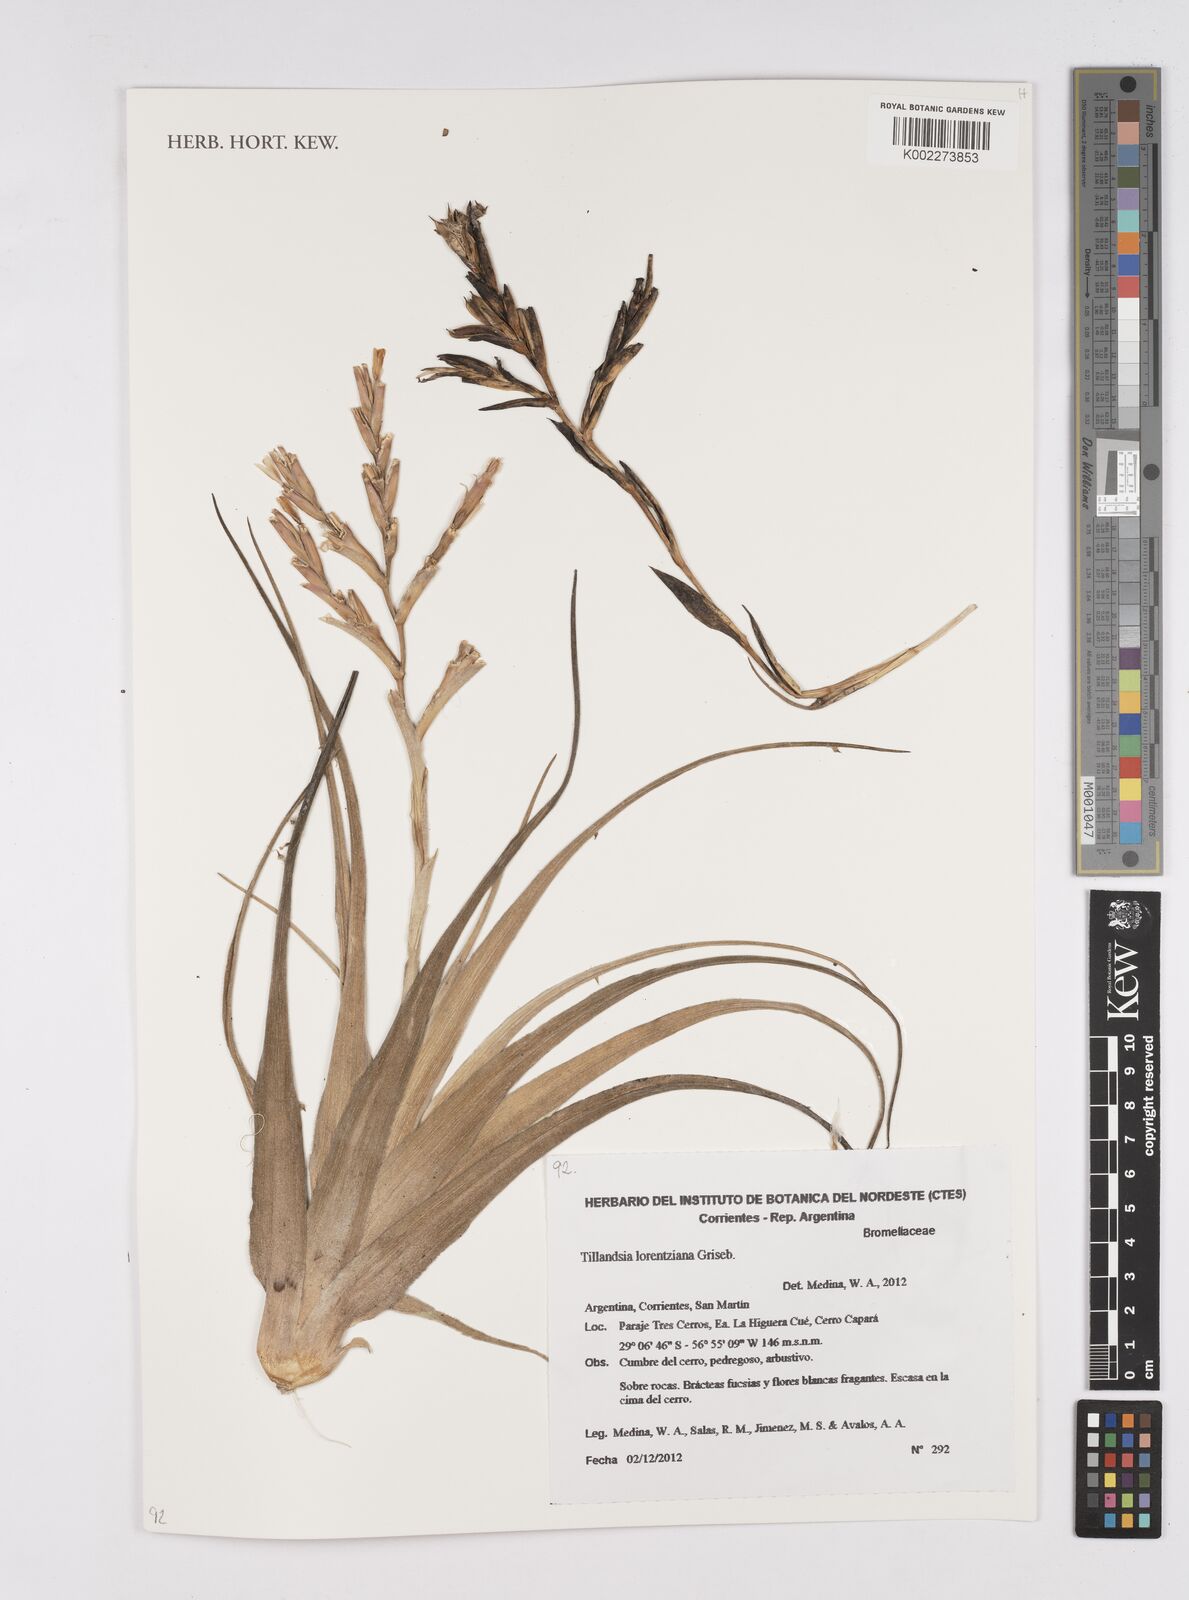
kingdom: Plantae
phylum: Tracheophyta
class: Liliopsida
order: Poales
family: Bromeliaceae
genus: Tillandsia
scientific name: Tillandsia lorentziana
